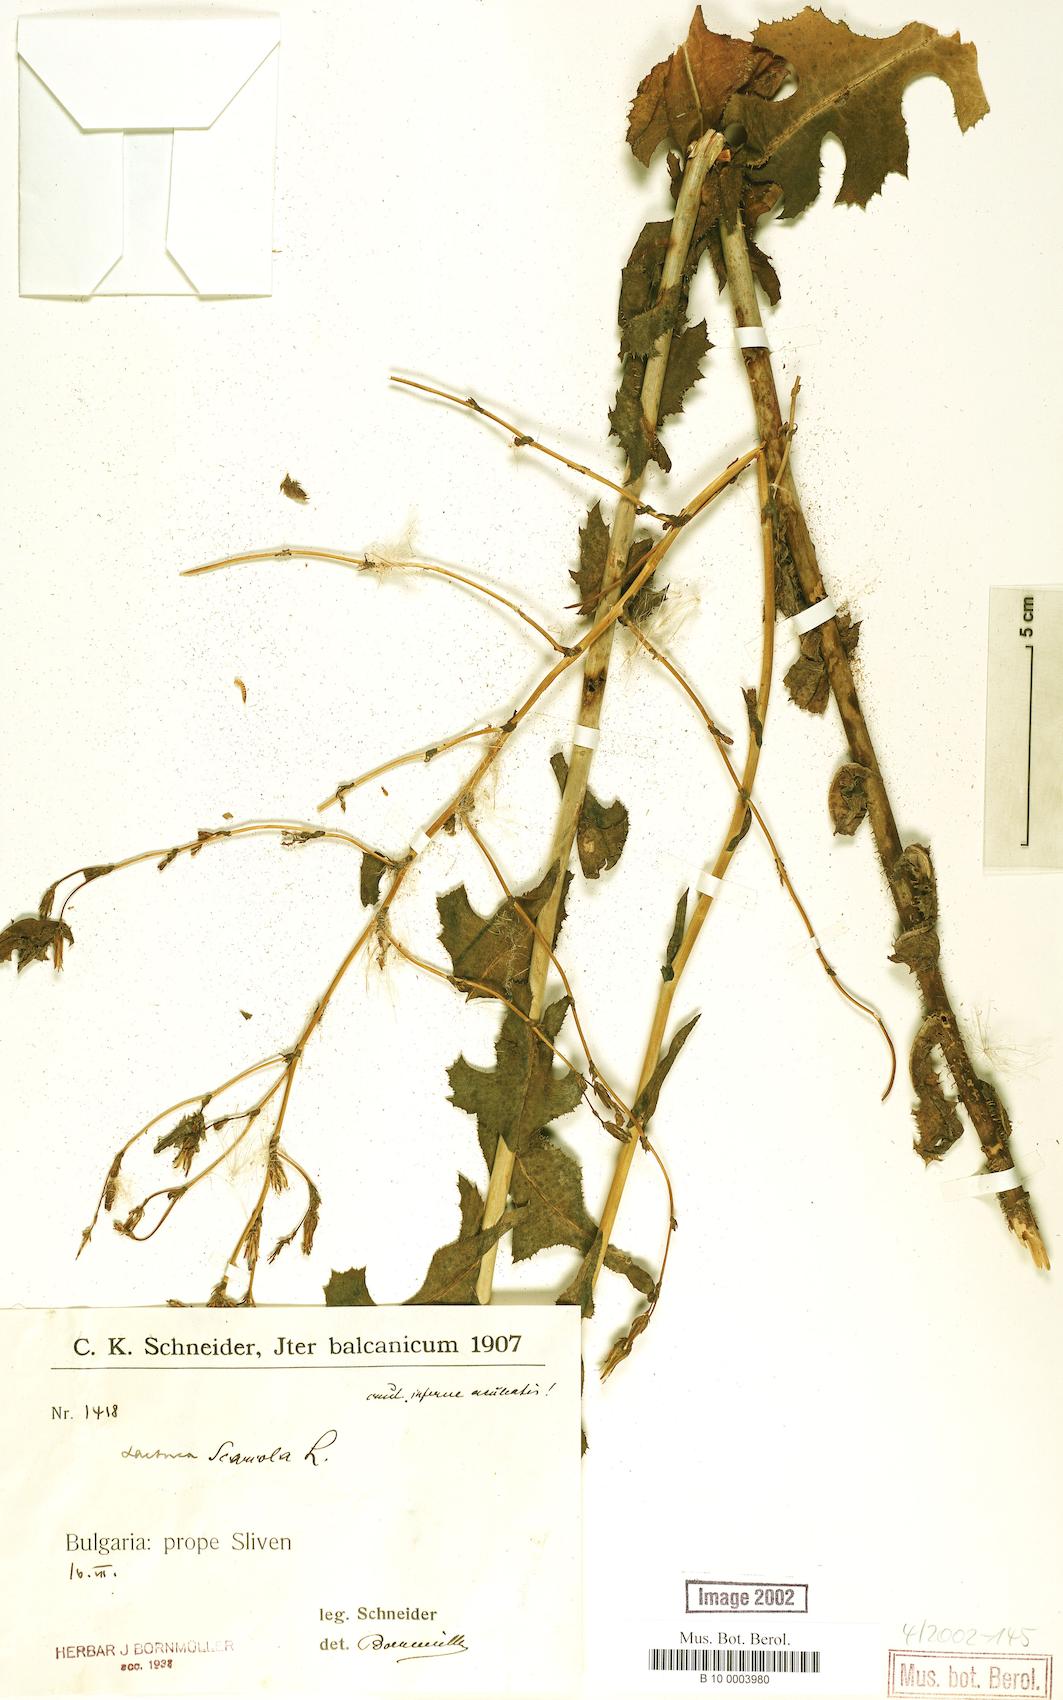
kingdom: Plantae
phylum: Tracheophyta
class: Magnoliopsida
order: Asterales
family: Asteraceae
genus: Lactuca
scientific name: Lactuca serriola
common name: Prickly lettuce
